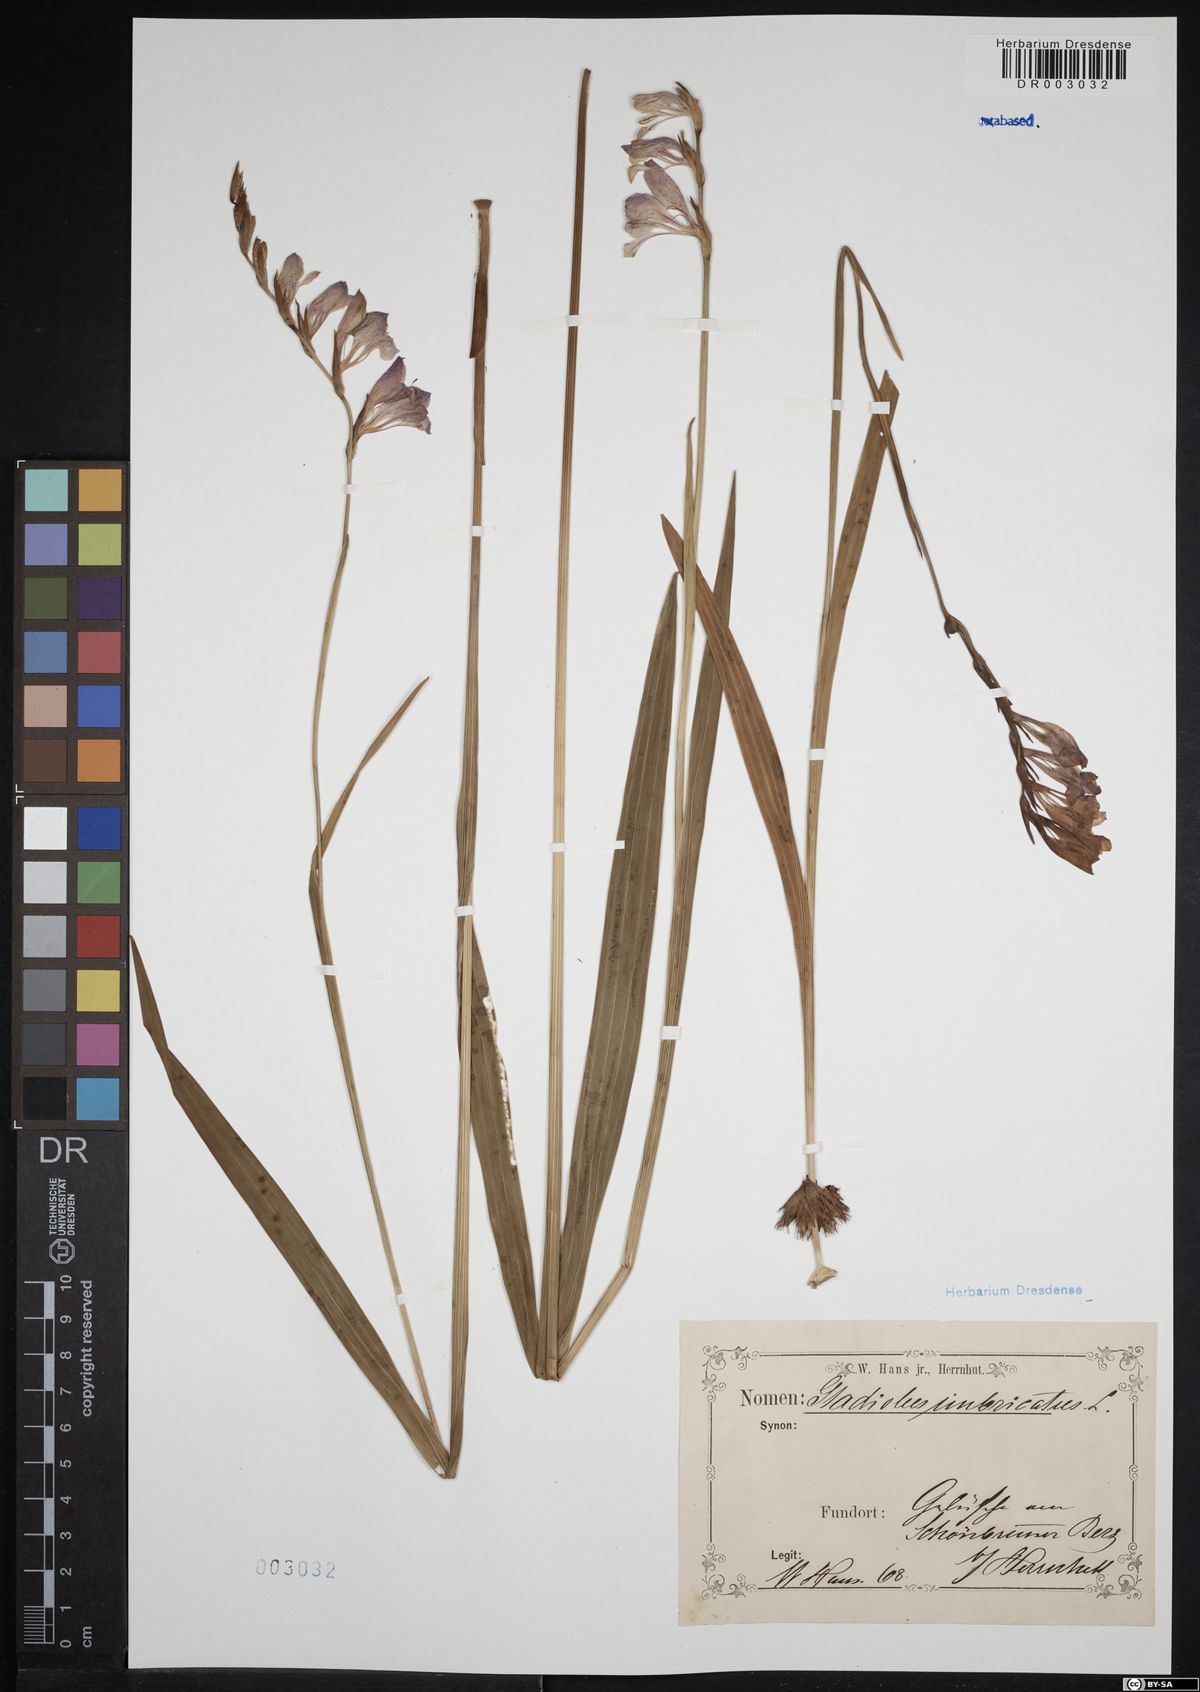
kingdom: Plantae
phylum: Tracheophyta
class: Liliopsida
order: Asparagales
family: Iridaceae
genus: Gladiolus
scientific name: Gladiolus imbricatus
